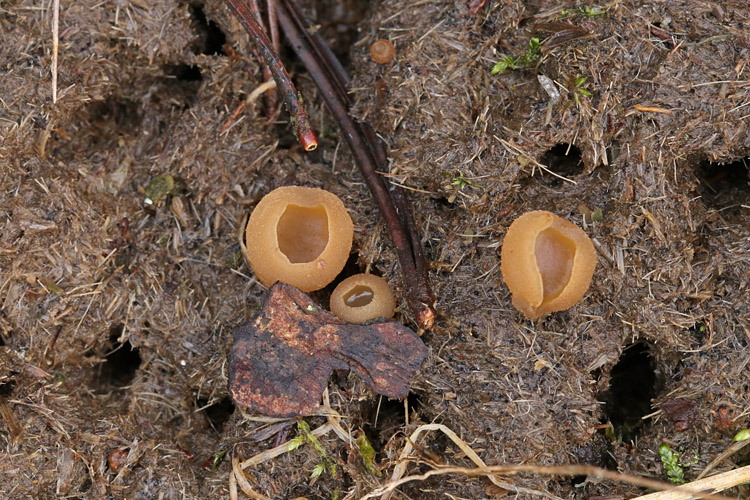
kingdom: Fungi
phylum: Ascomycota
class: Pezizomycetes
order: Pezizales
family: Pezizaceae
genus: Peziza
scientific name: Peziza fimeti
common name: møg-bægersvamp
